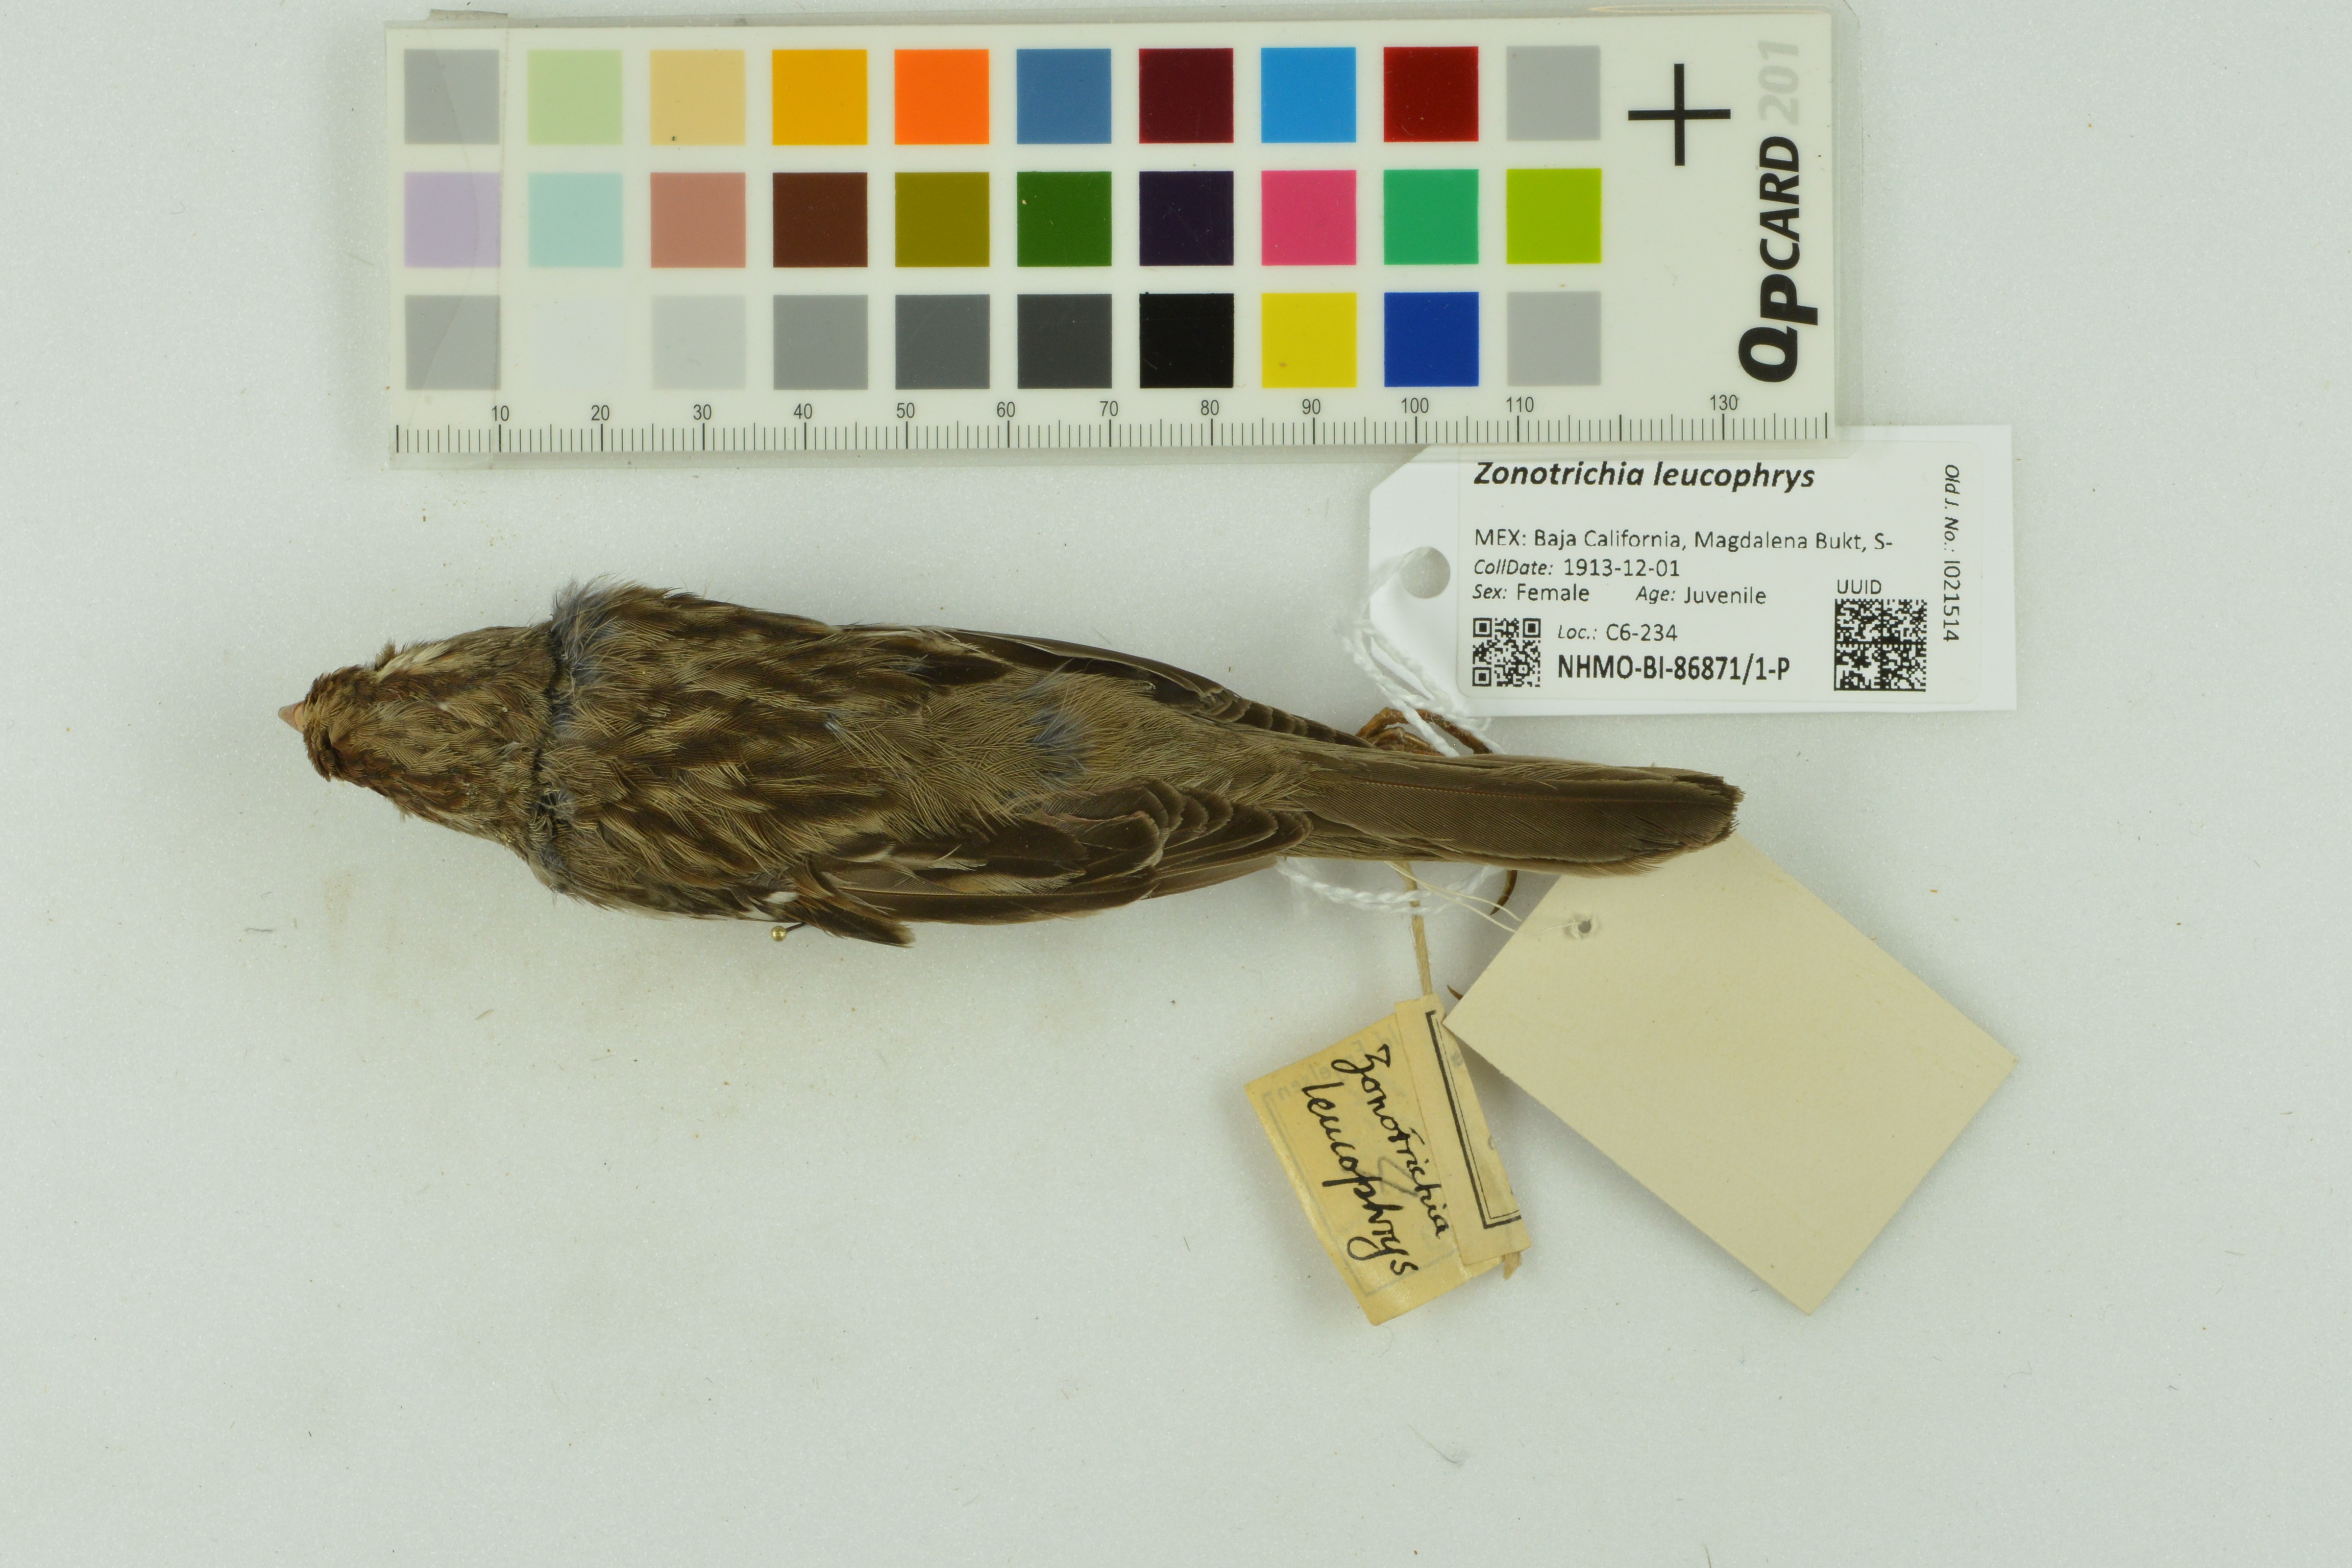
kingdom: Animalia
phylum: Chordata
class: Aves
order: Passeriformes
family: Passerellidae
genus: Zonotrichia
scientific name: Zonotrichia leucophrys
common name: White-crowned sparrow
